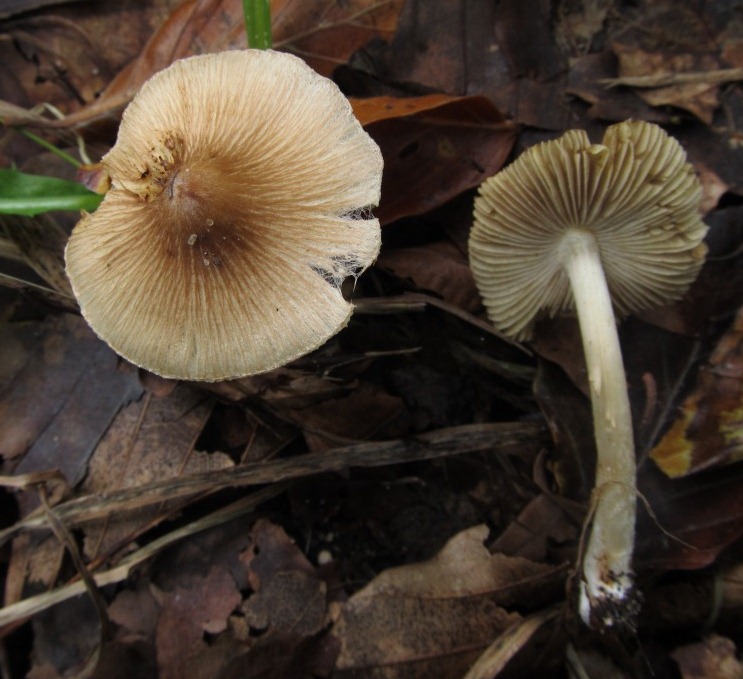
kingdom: Fungi
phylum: Basidiomycota
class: Agaricomycetes
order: Agaricales
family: Inocybaceae
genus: Pseudosperma
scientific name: Pseudosperma rimosum
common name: gulbladet trævlhat
